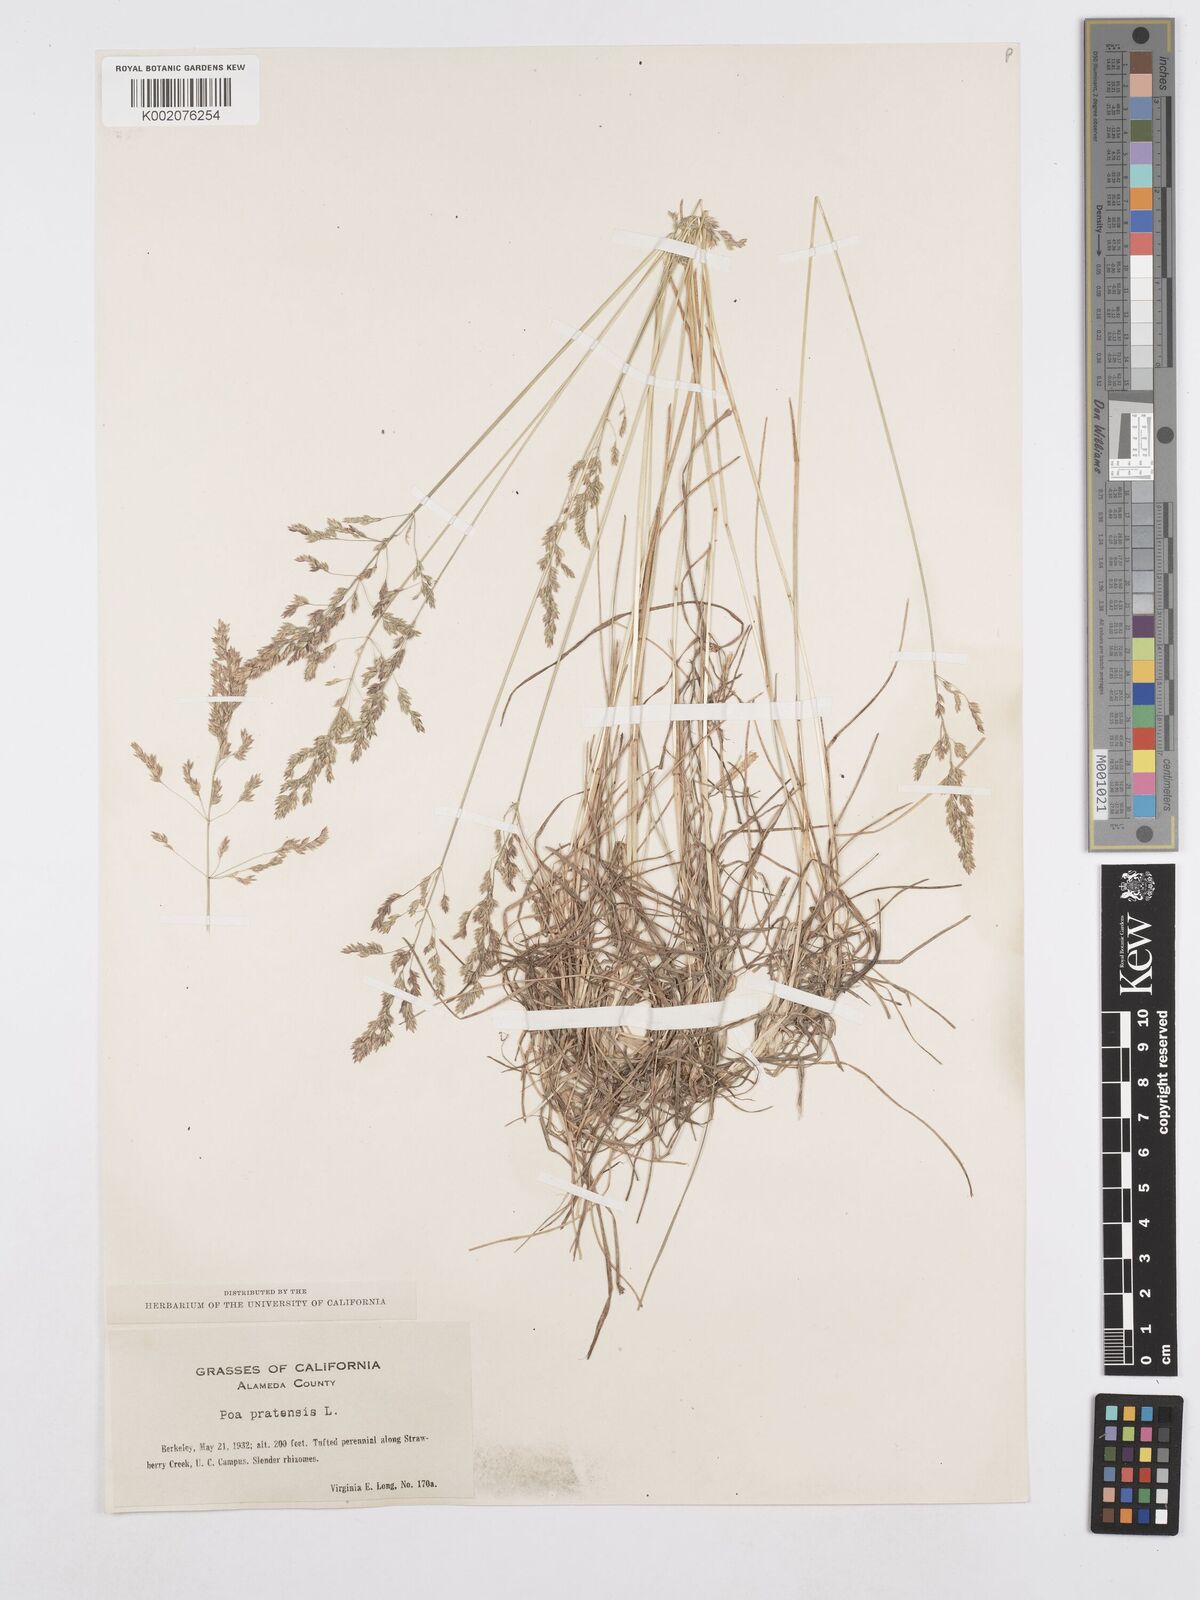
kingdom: Plantae
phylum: Tracheophyta
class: Liliopsida
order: Poales
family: Poaceae
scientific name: Poaceae
